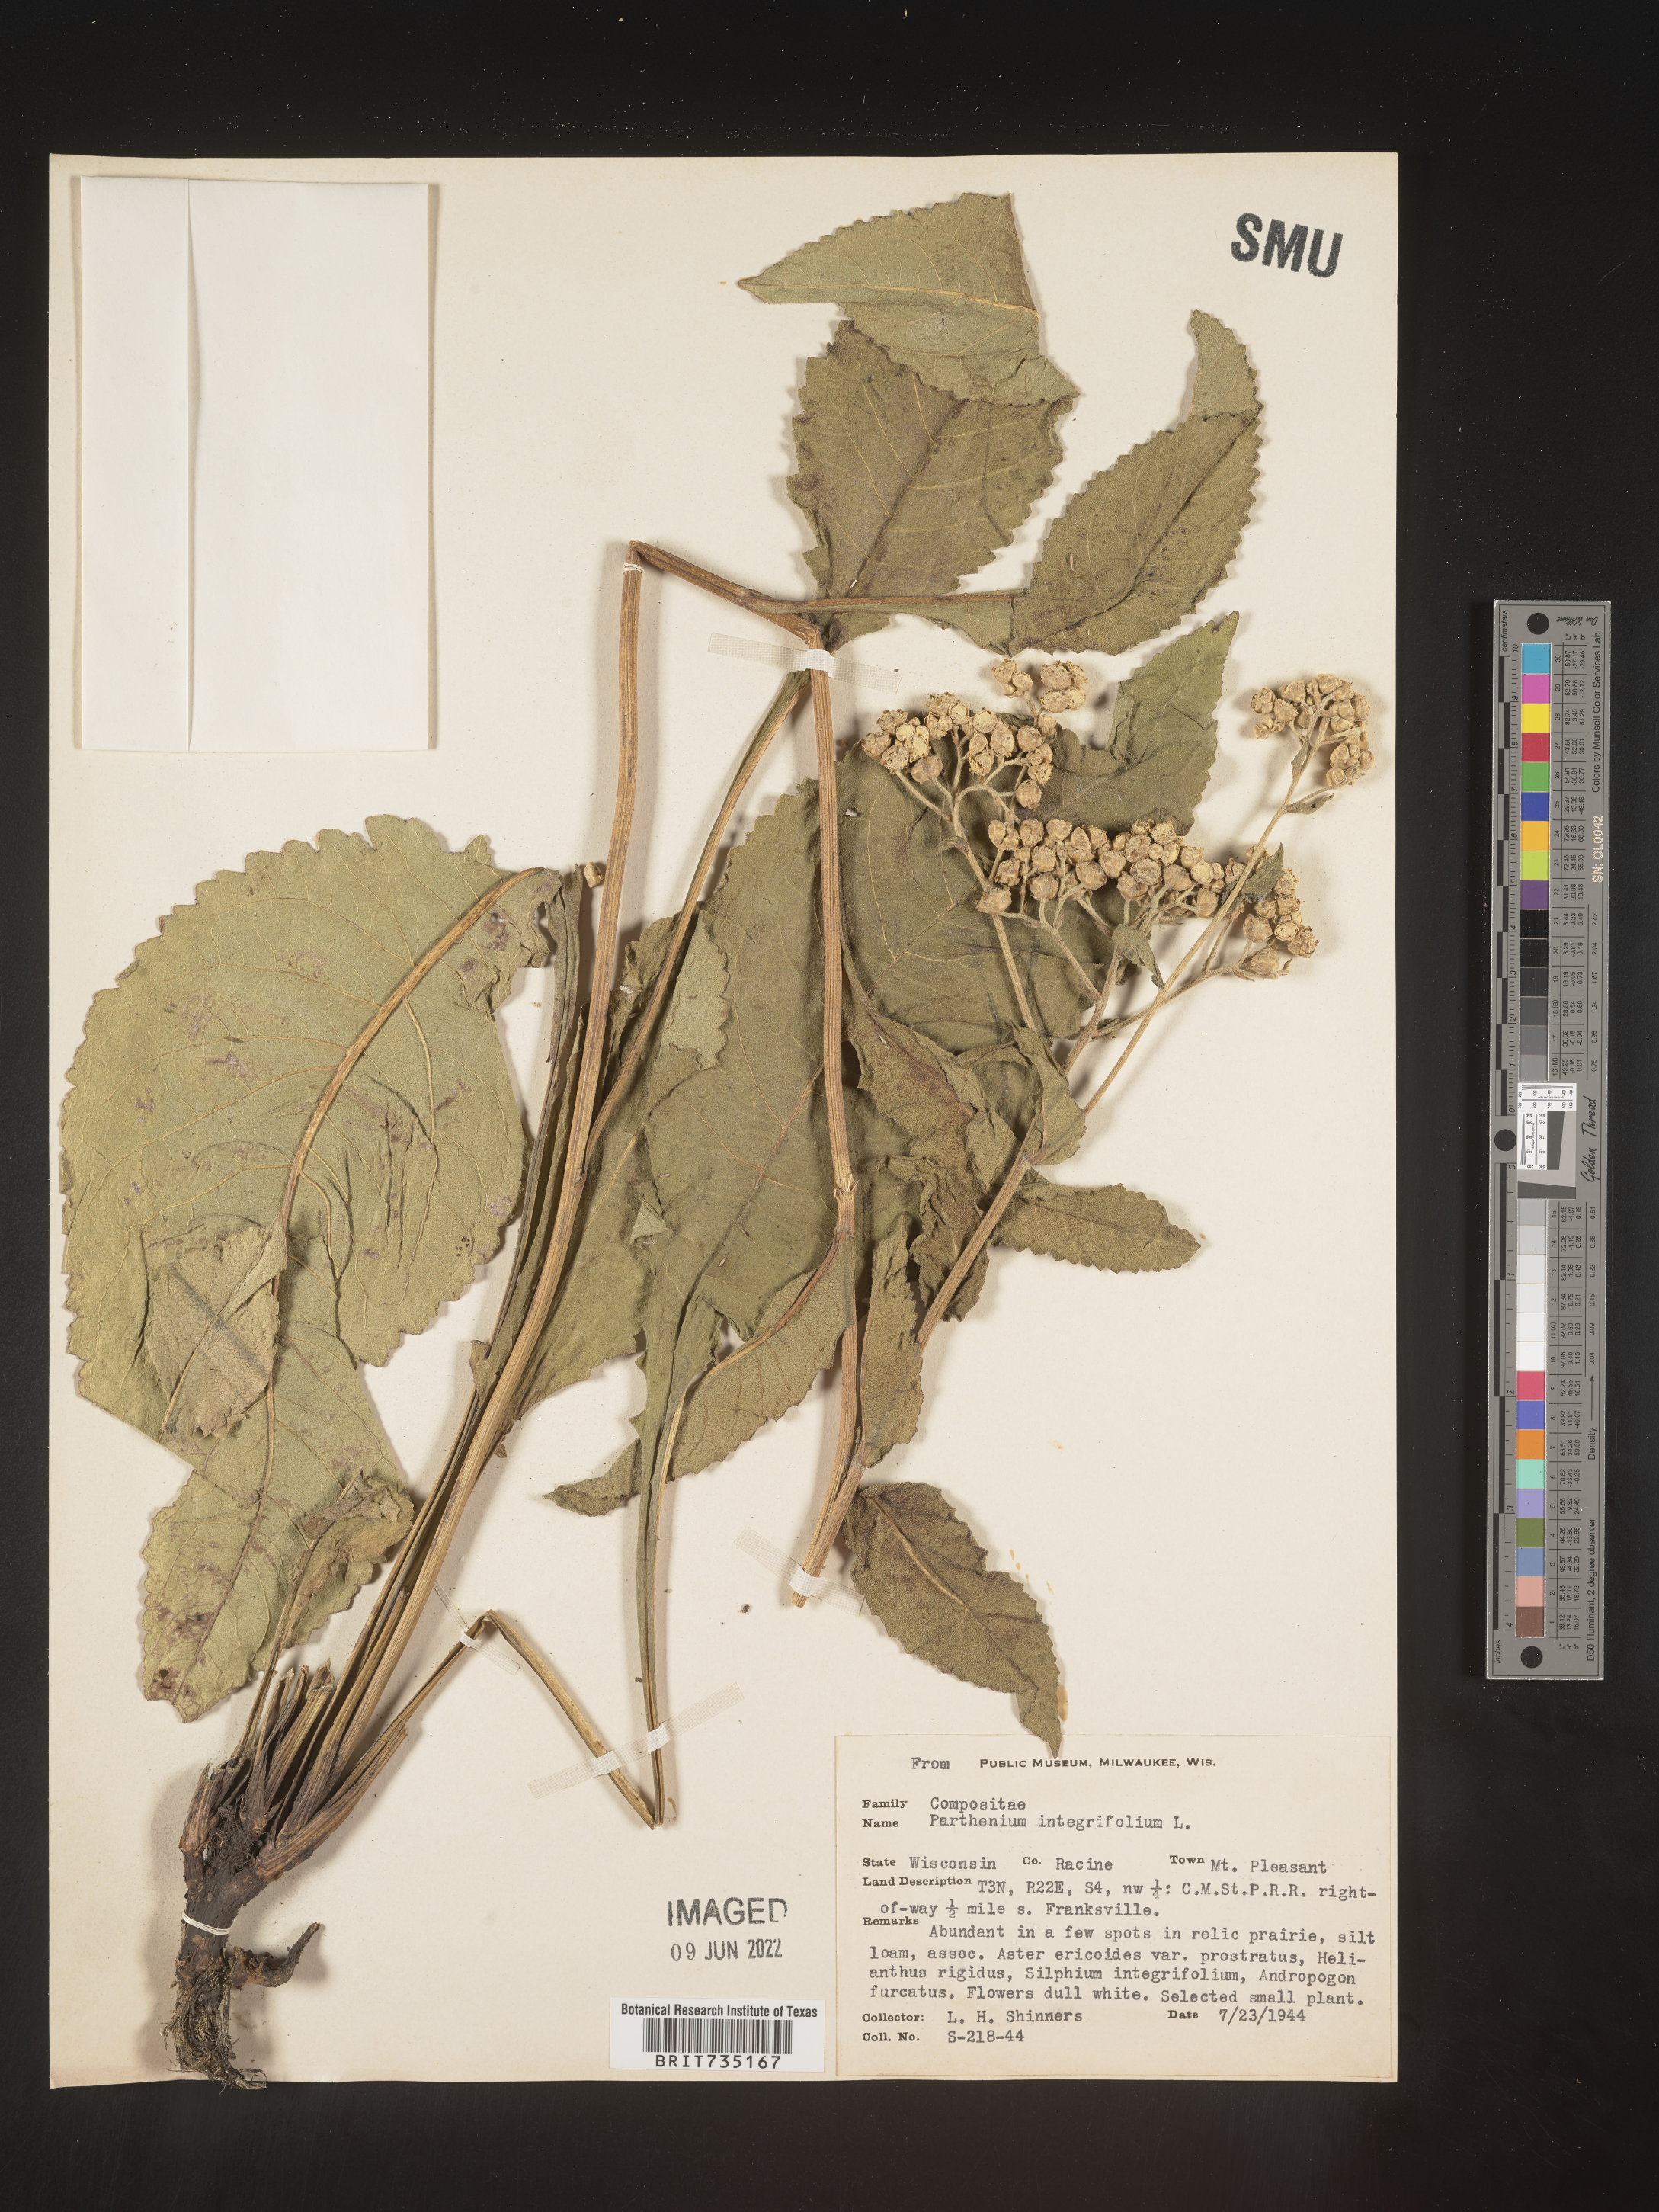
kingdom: Plantae
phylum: Tracheophyta
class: Magnoliopsida
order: Asterales
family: Asteraceae
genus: Parthenium
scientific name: Parthenium integrifolium
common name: American feverfew
